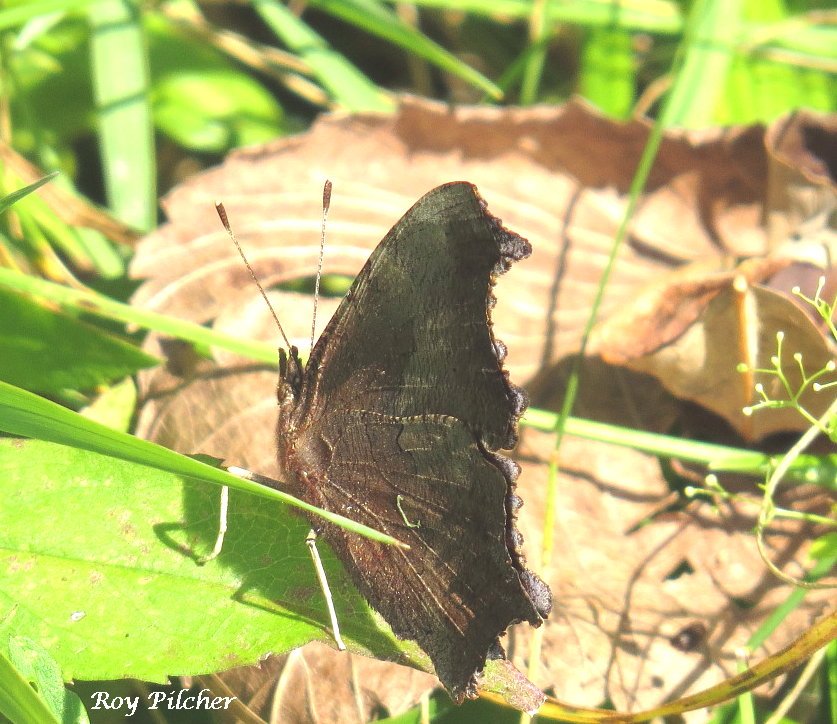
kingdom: Animalia
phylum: Arthropoda
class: Insecta
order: Lepidoptera
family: Nymphalidae
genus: Polygonia
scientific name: Polygonia comma
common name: Eastern Comma
